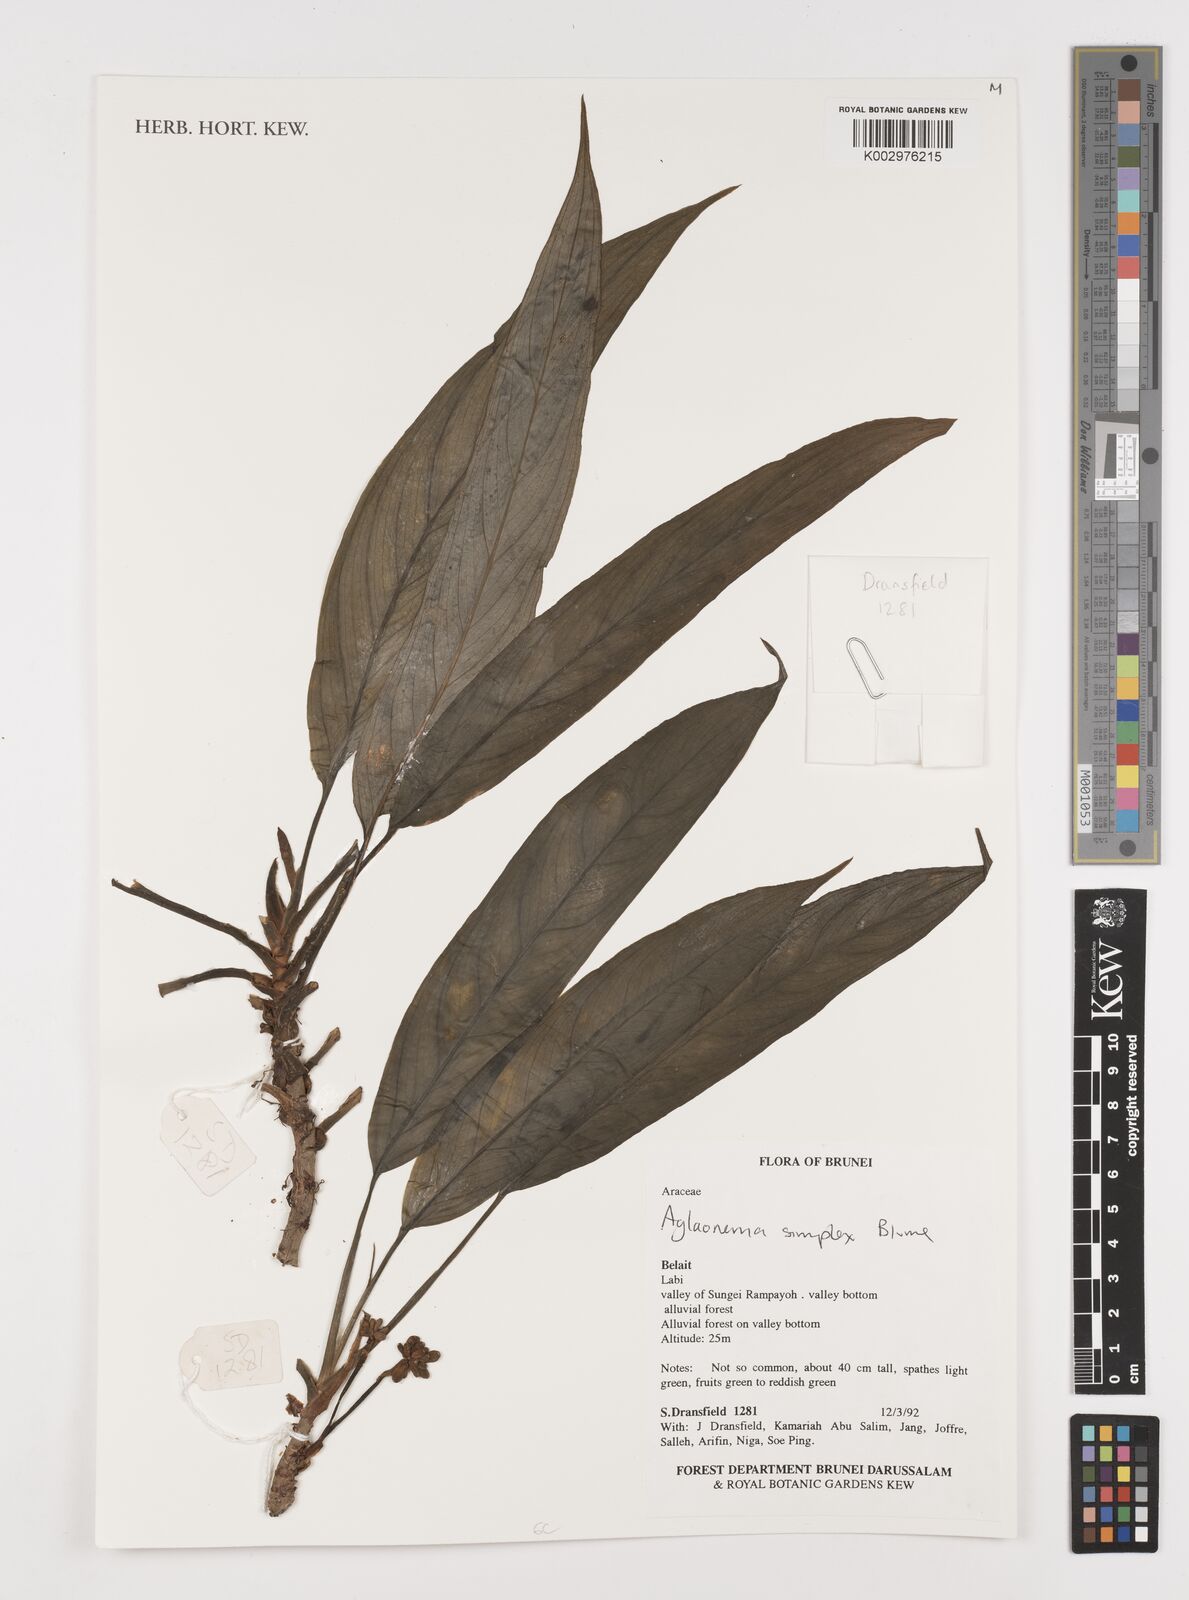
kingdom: Plantae
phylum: Tracheophyta
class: Liliopsida
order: Alismatales
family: Araceae
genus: Aglaonema
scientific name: Aglaonema simplex
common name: Malayan-sword
